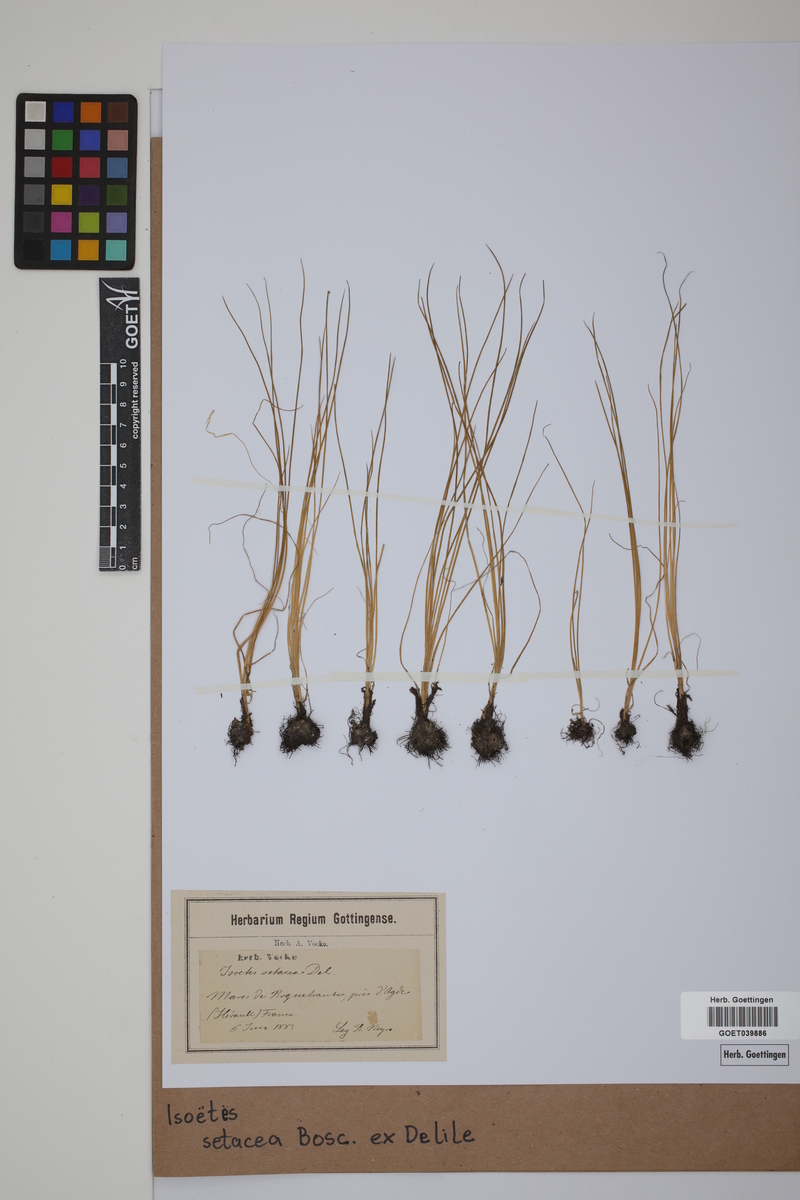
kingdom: Plantae
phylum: Tracheophyta
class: Lycopodiopsida
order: Isoetales
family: Isoetaceae
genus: Isoetes
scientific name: Isoetes longissima
